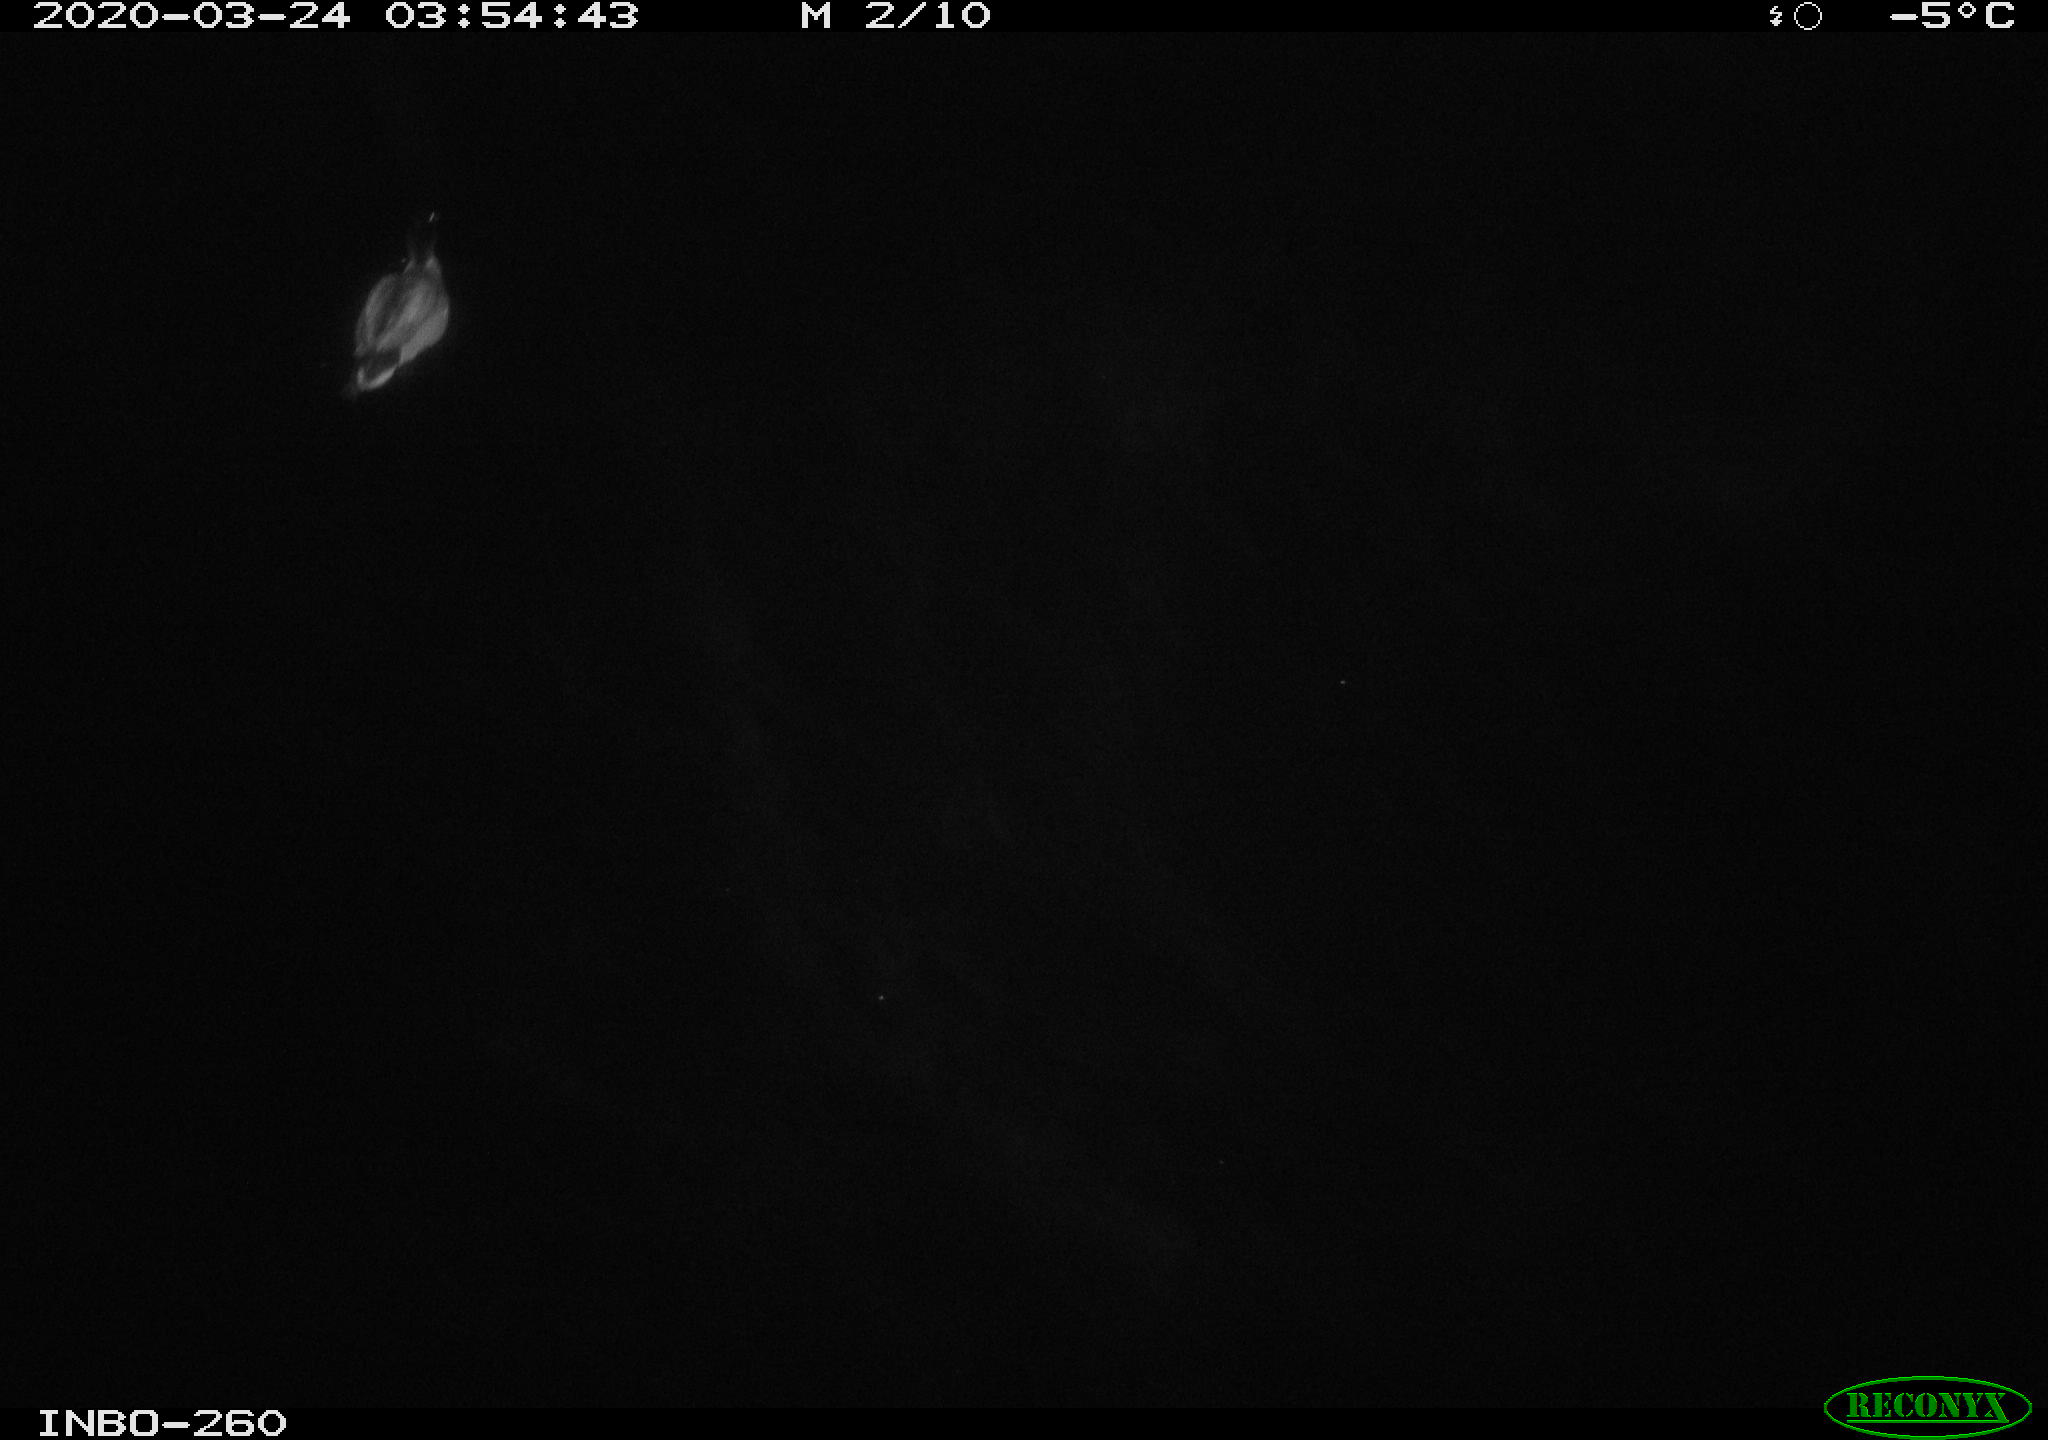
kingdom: Animalia
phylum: Chordata
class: Aves
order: Anseriformes
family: Anatidae
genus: Anas
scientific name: Anas platyrhynchos
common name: Mallard
